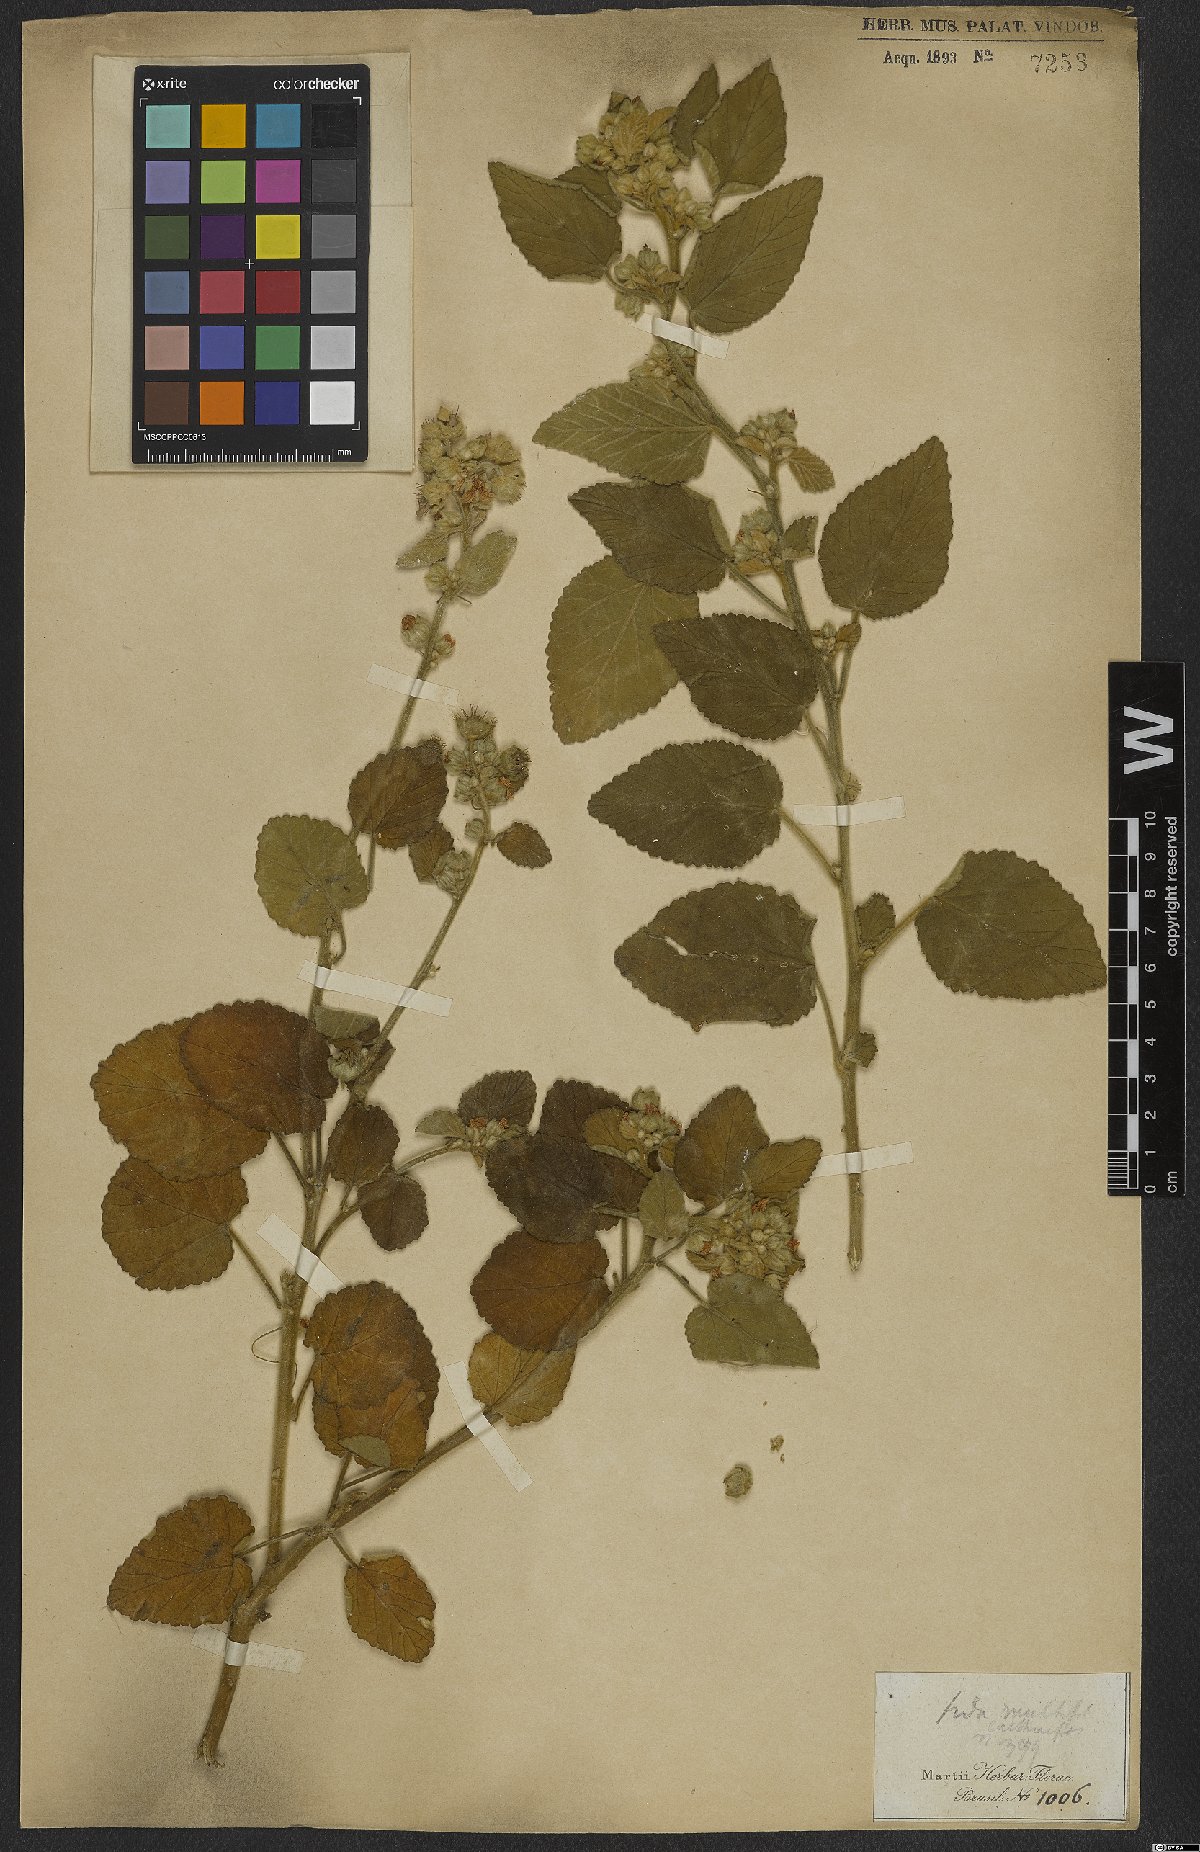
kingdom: Plantae
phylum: Tracheophyta
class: Magnoliopsida
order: Malvales
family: Malvaceae
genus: Sida
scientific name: Sida cordifolia
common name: Ilima
